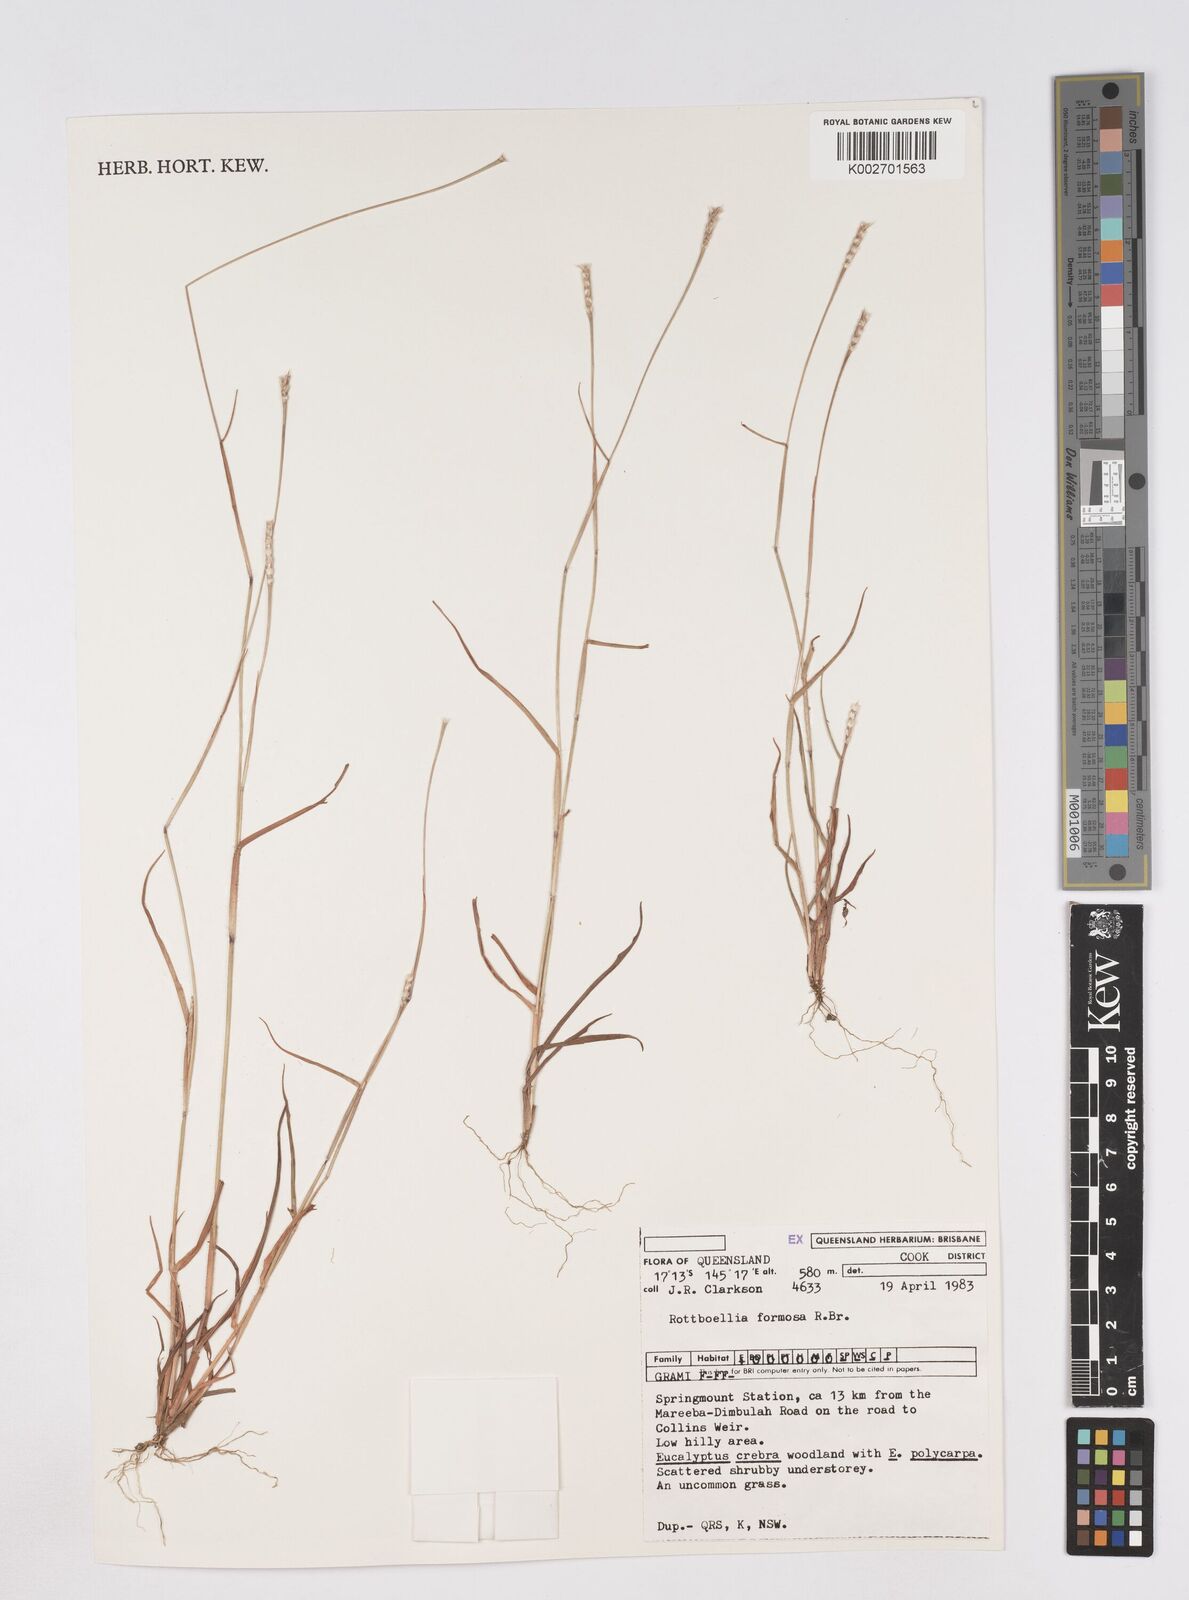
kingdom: Plantae
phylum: Tracheophyta
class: Liliopsida
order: Poales
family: Poaceae
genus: Heteropholis
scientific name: Heteropholis
